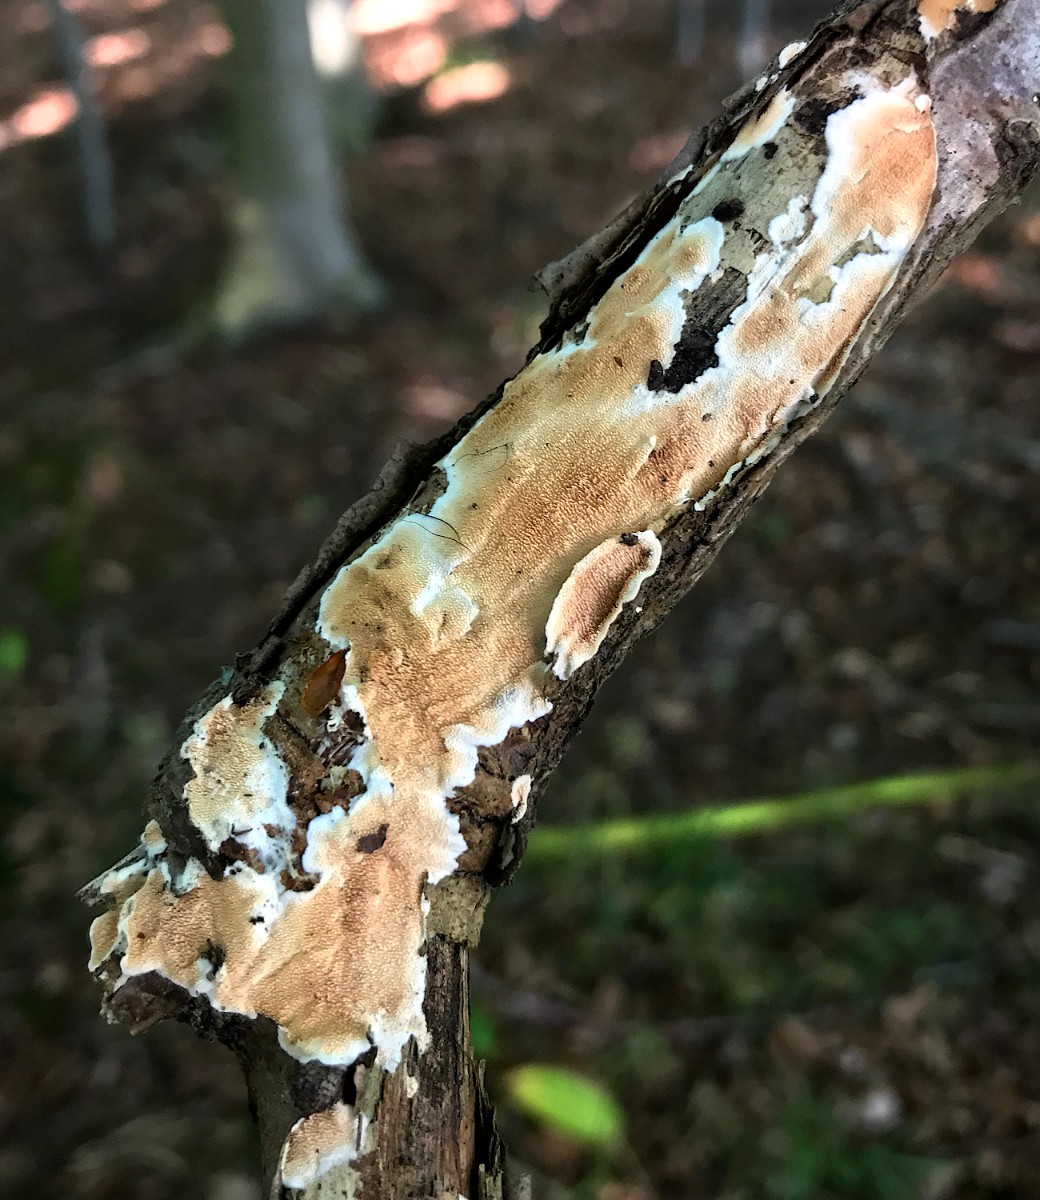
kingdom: Fungi
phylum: Basidiomycota
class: Agaricomycetes
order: Polyporales
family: Steccherinaceae
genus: Steccherinum
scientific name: Steccherinum ochraceum
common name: almindelig skønpig
